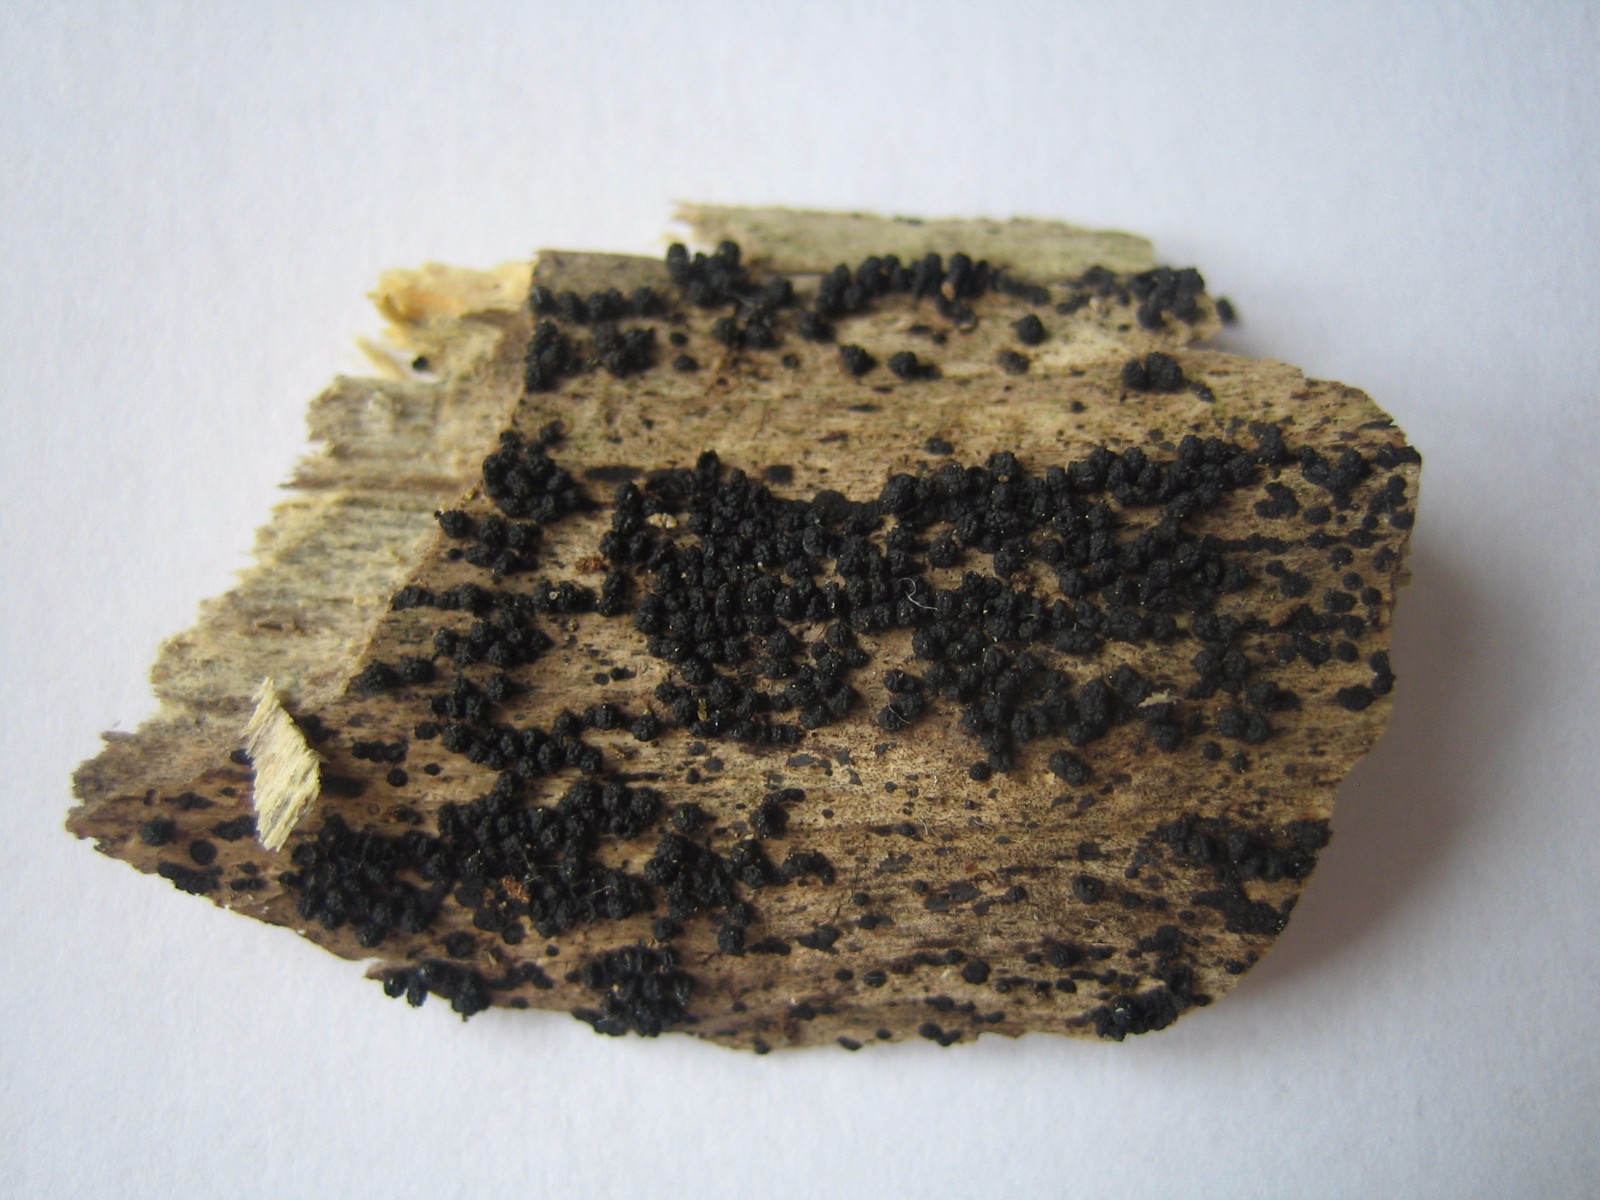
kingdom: Fungi
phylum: Ascomycota
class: Sordariomycetes
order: Coronophorales
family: Bertiaceae
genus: Bertia
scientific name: Bertia moriformis
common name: almindelig morbærkerne
